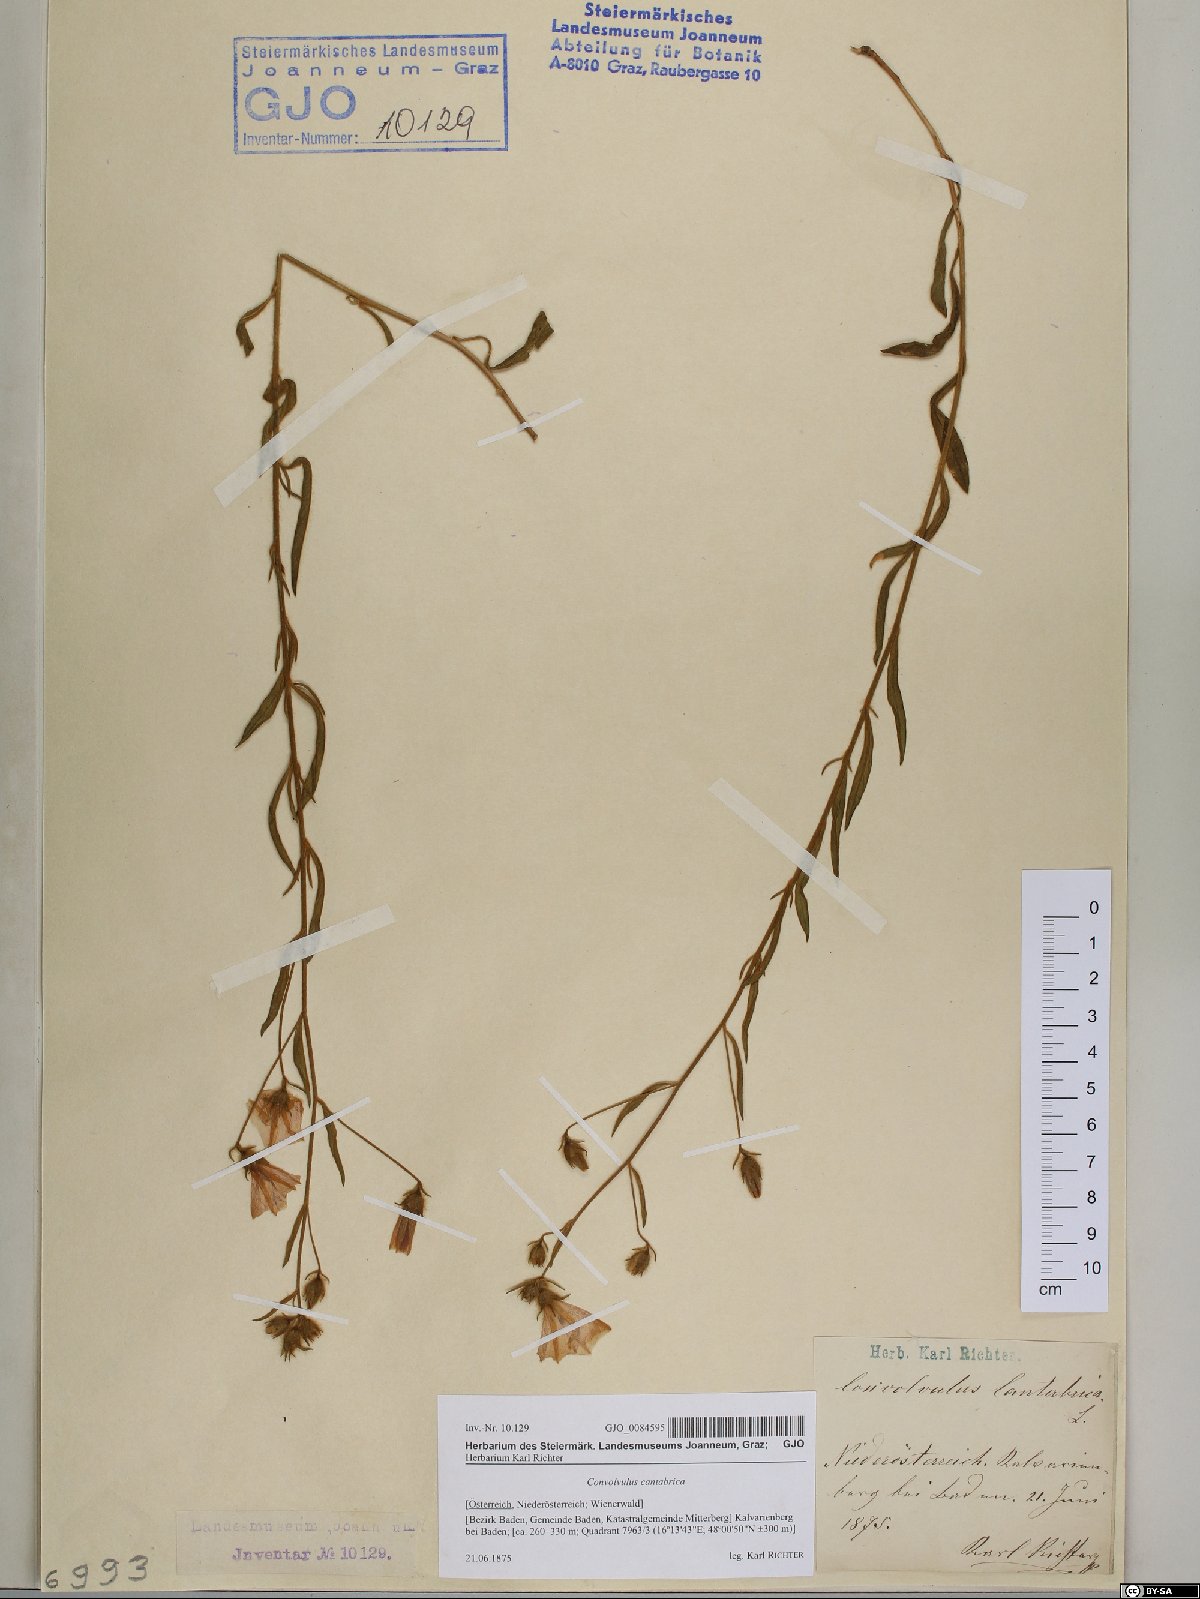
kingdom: Plantae
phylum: Tracheophyta
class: Magnoliopsida
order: Solanales
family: Convolvulaceae
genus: Convolvulus
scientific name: Convolvulus cantabrica
